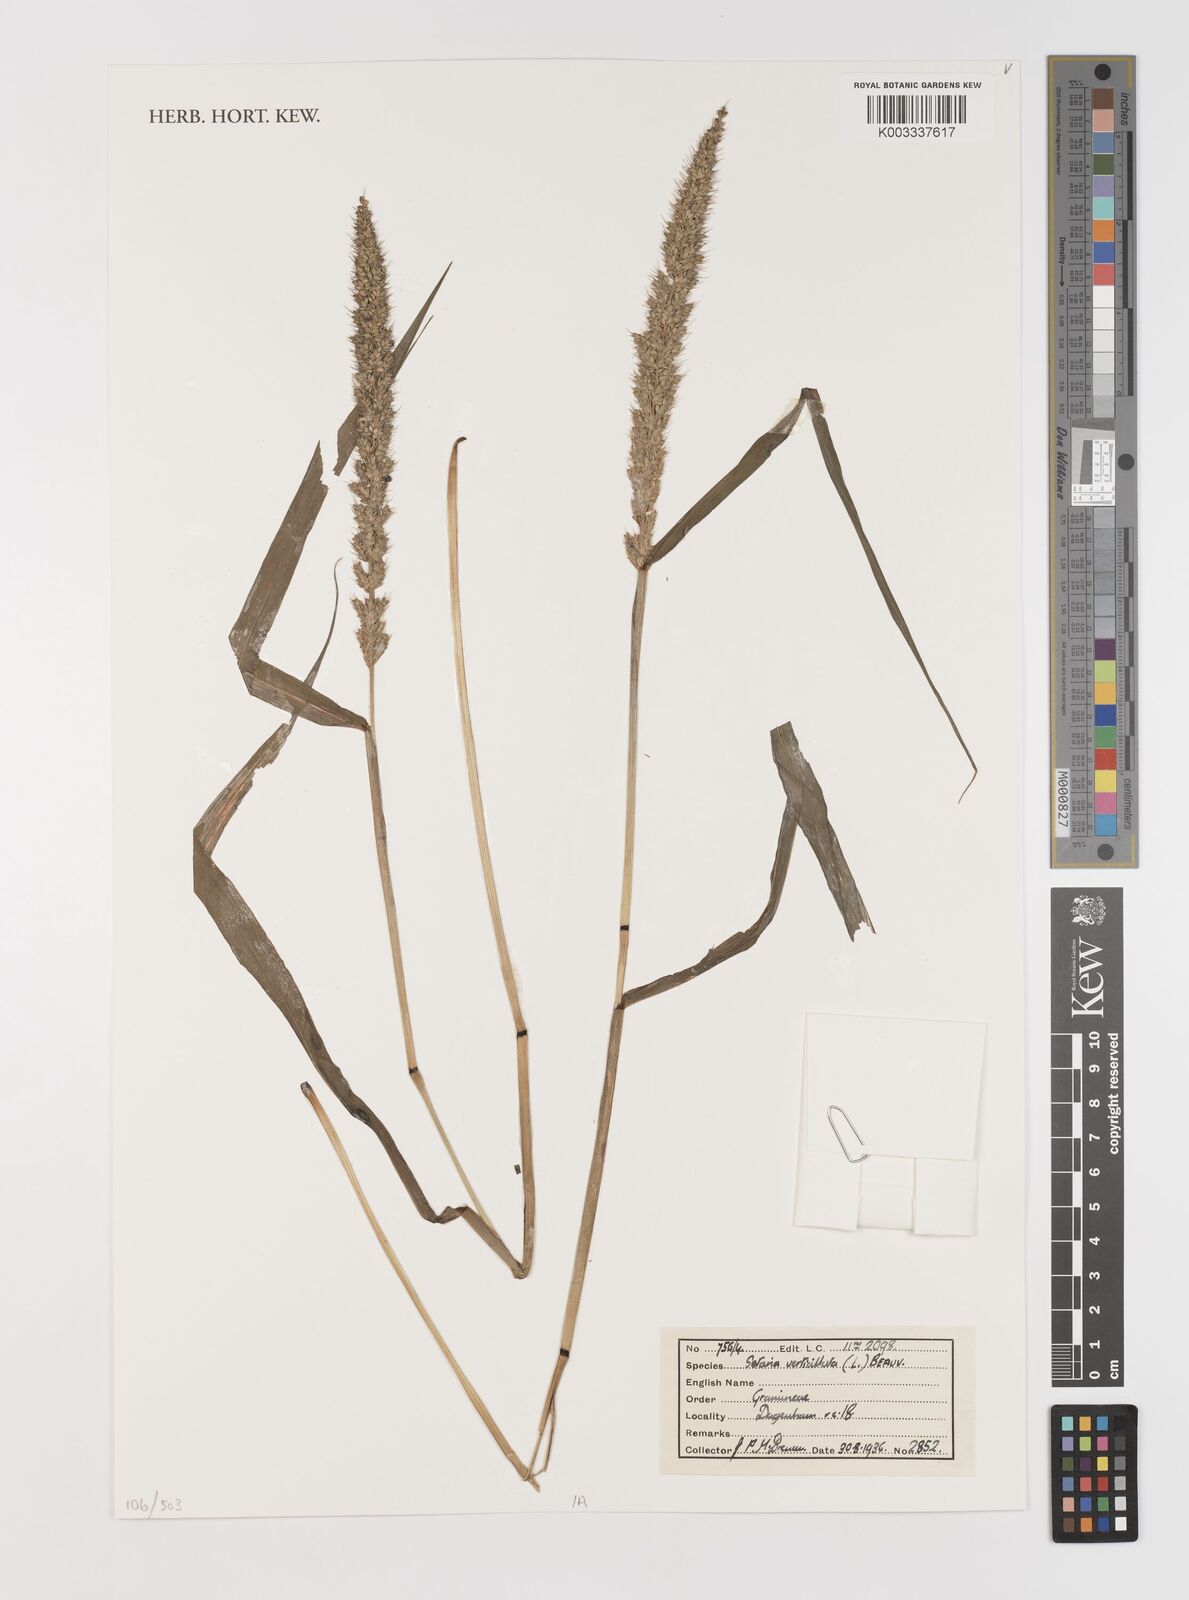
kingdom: Plantae
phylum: Tracheophyta
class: Liliopsida
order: Poales
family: Poaceae
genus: Setaria
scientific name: Setaria verticillata
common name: Hooked bristlegrass
